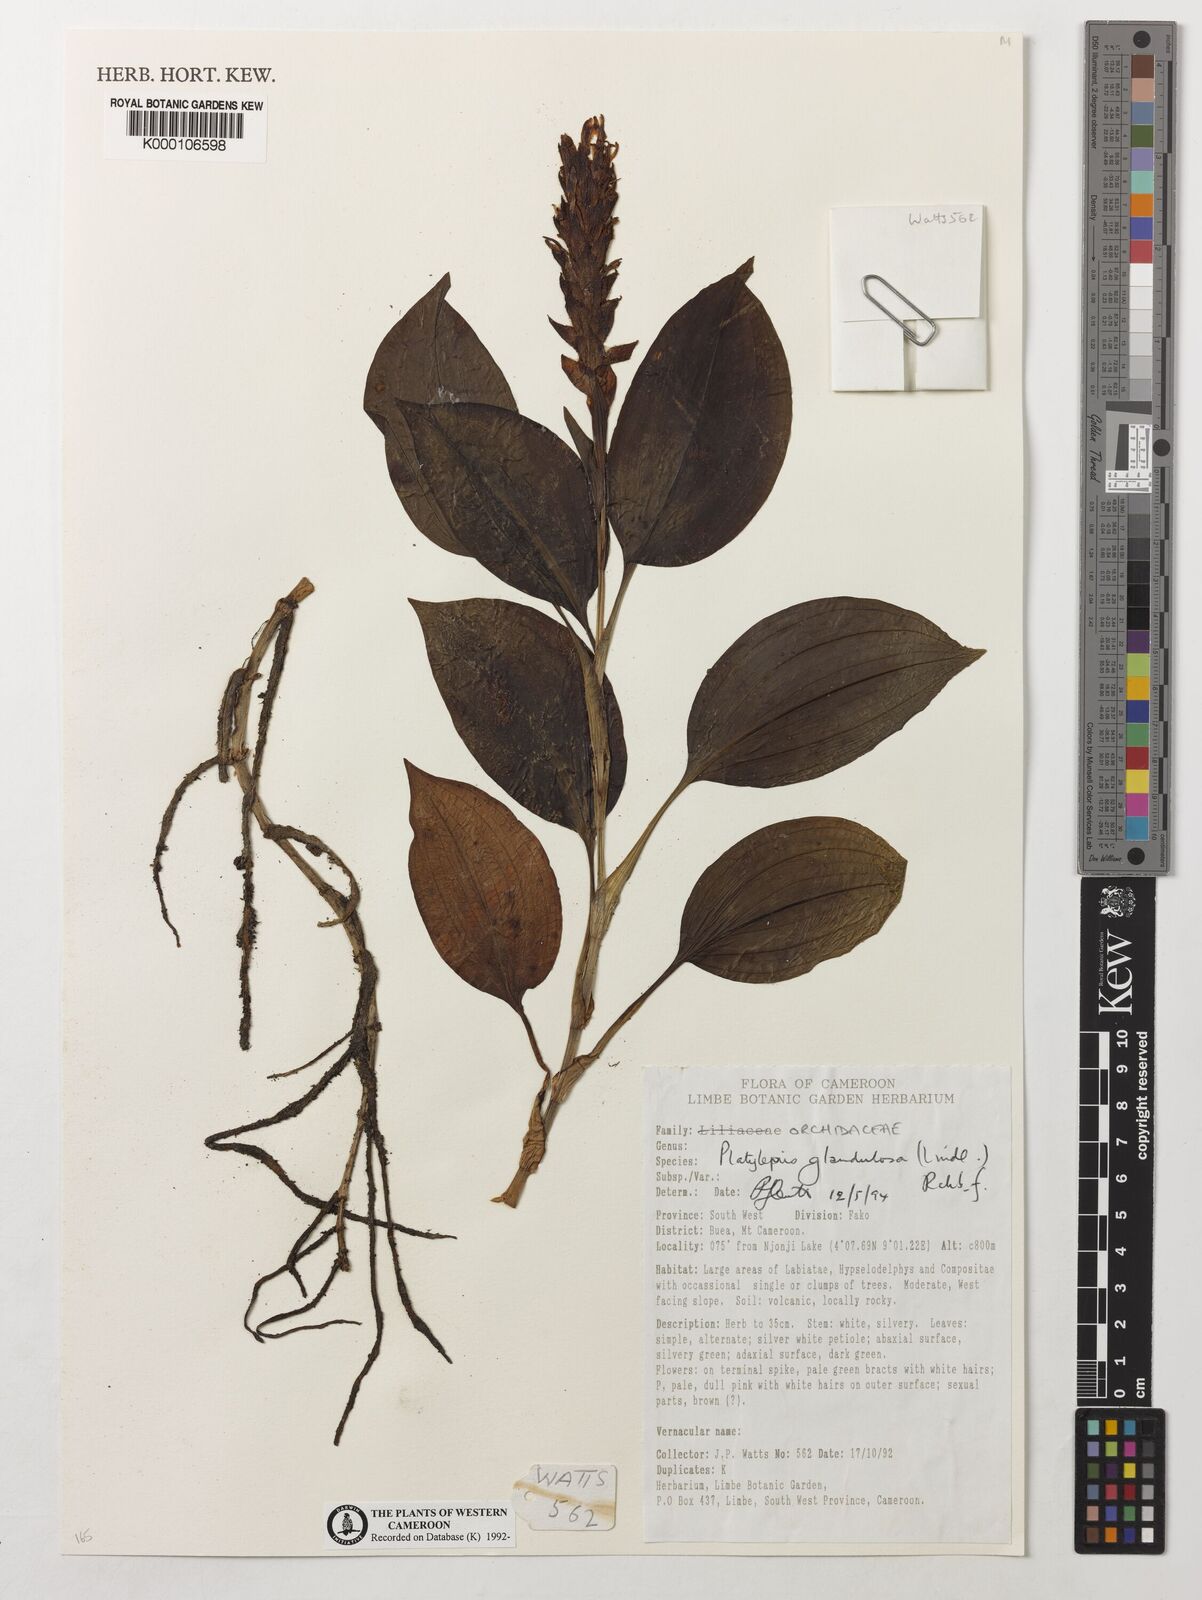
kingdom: Plantae
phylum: Tracheophyta
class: Liliopsida
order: Asparagales
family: Orchidaceae
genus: Platylepis
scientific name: Platylepis glandulosa
